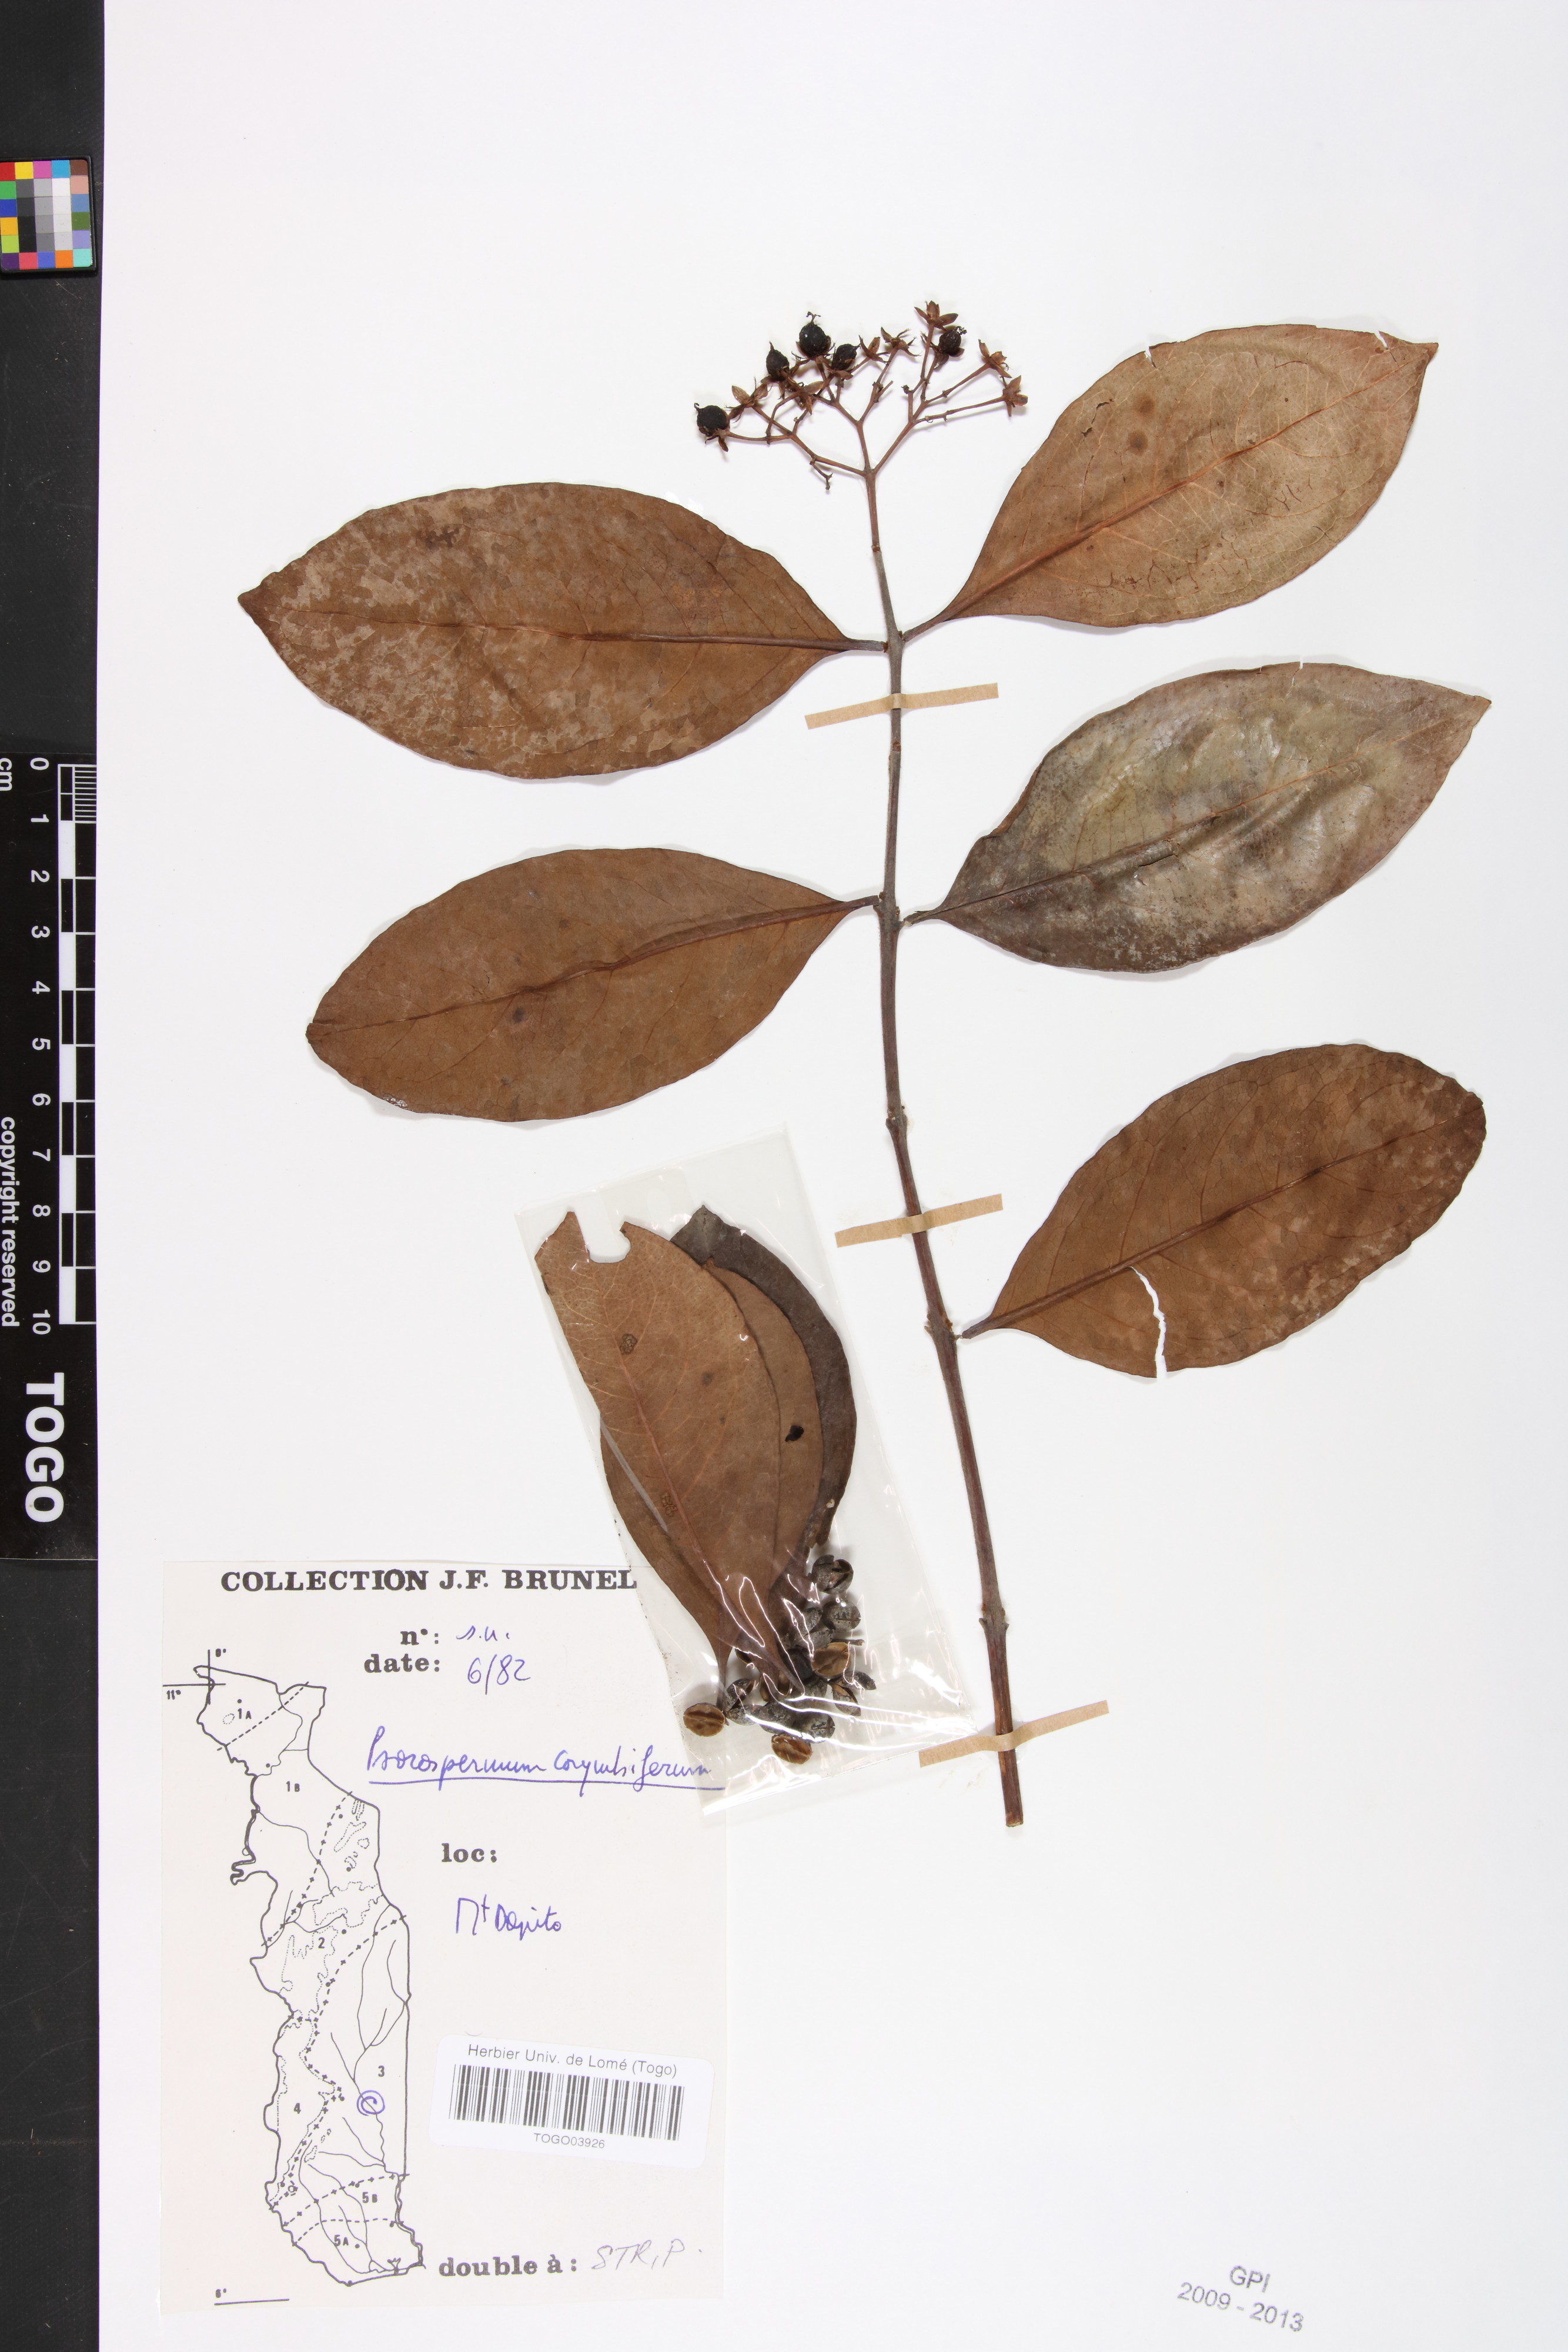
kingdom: Plantae
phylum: Tracheophyta
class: Magnoliopsida
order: Malpighiales
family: Hypericaceae
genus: Psorospermum
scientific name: Psorospermum corymbiferum
